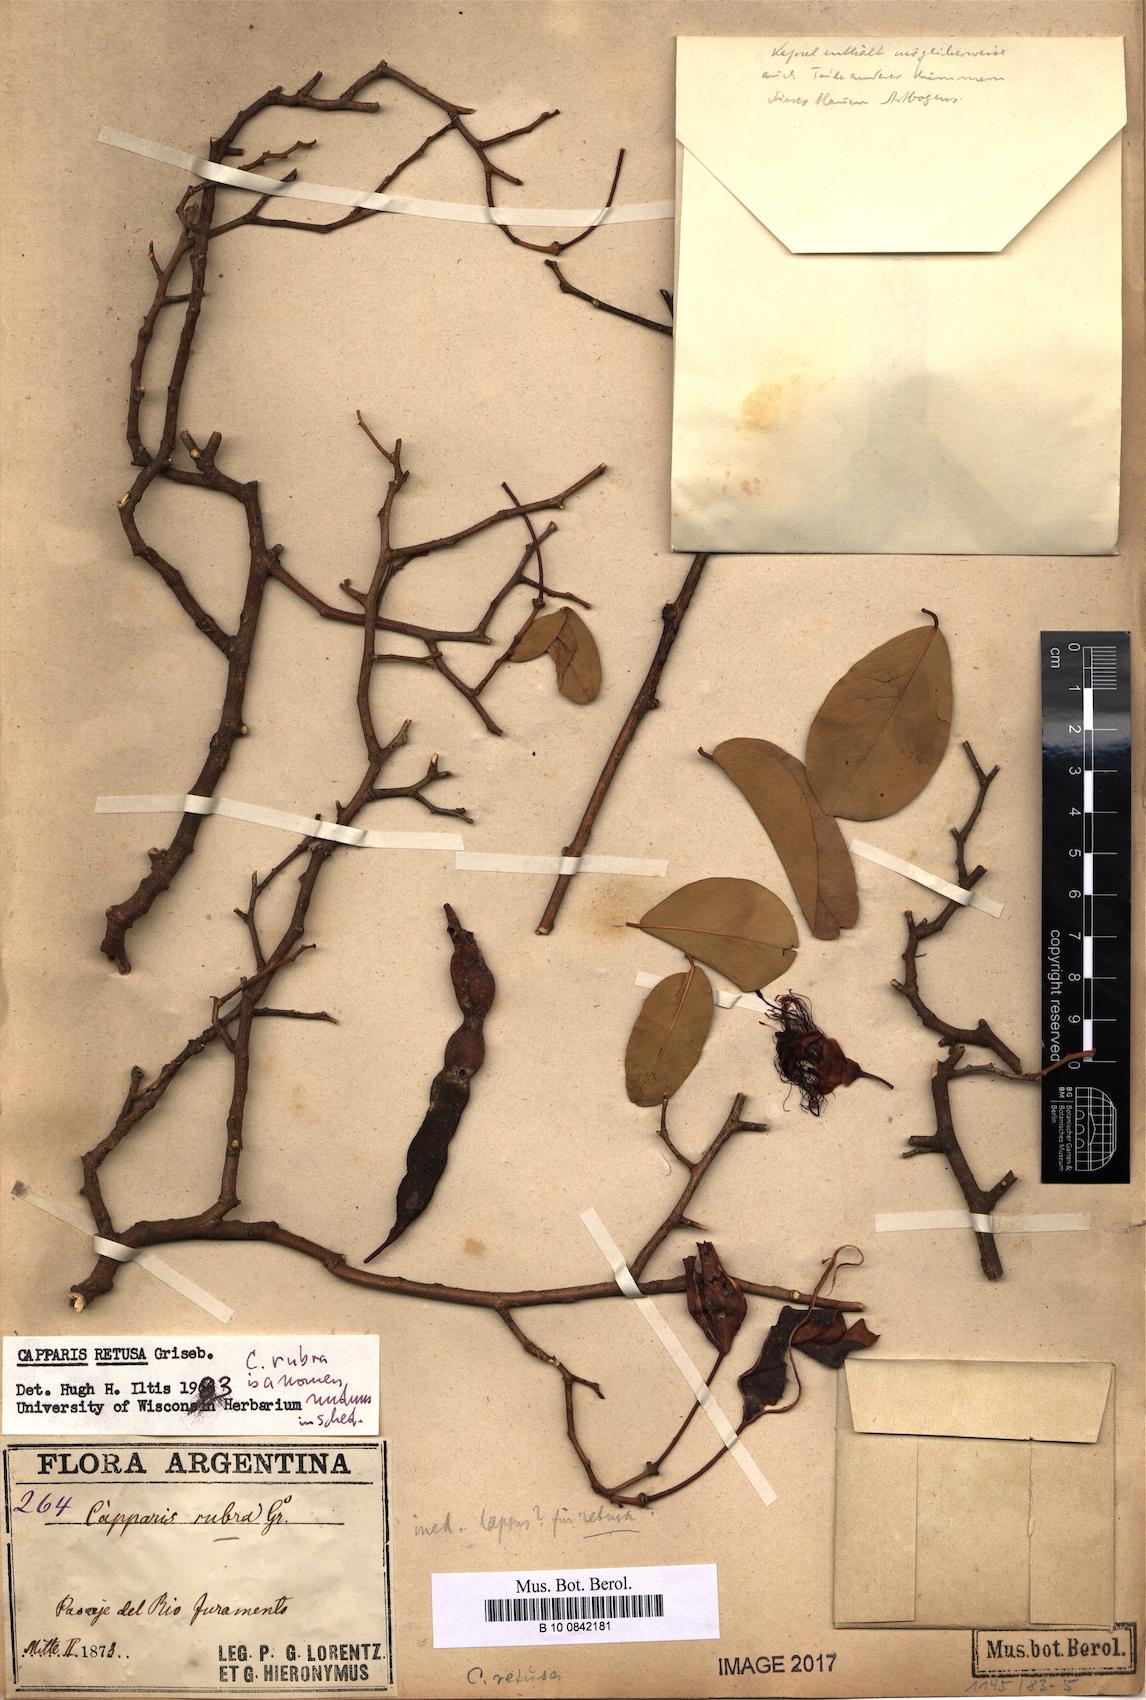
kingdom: Plantae
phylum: Tracheophyta
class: Magnoliopsida
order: Brassicales
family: Capparaceae
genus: Cynophalla
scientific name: Cynophalla retusa
